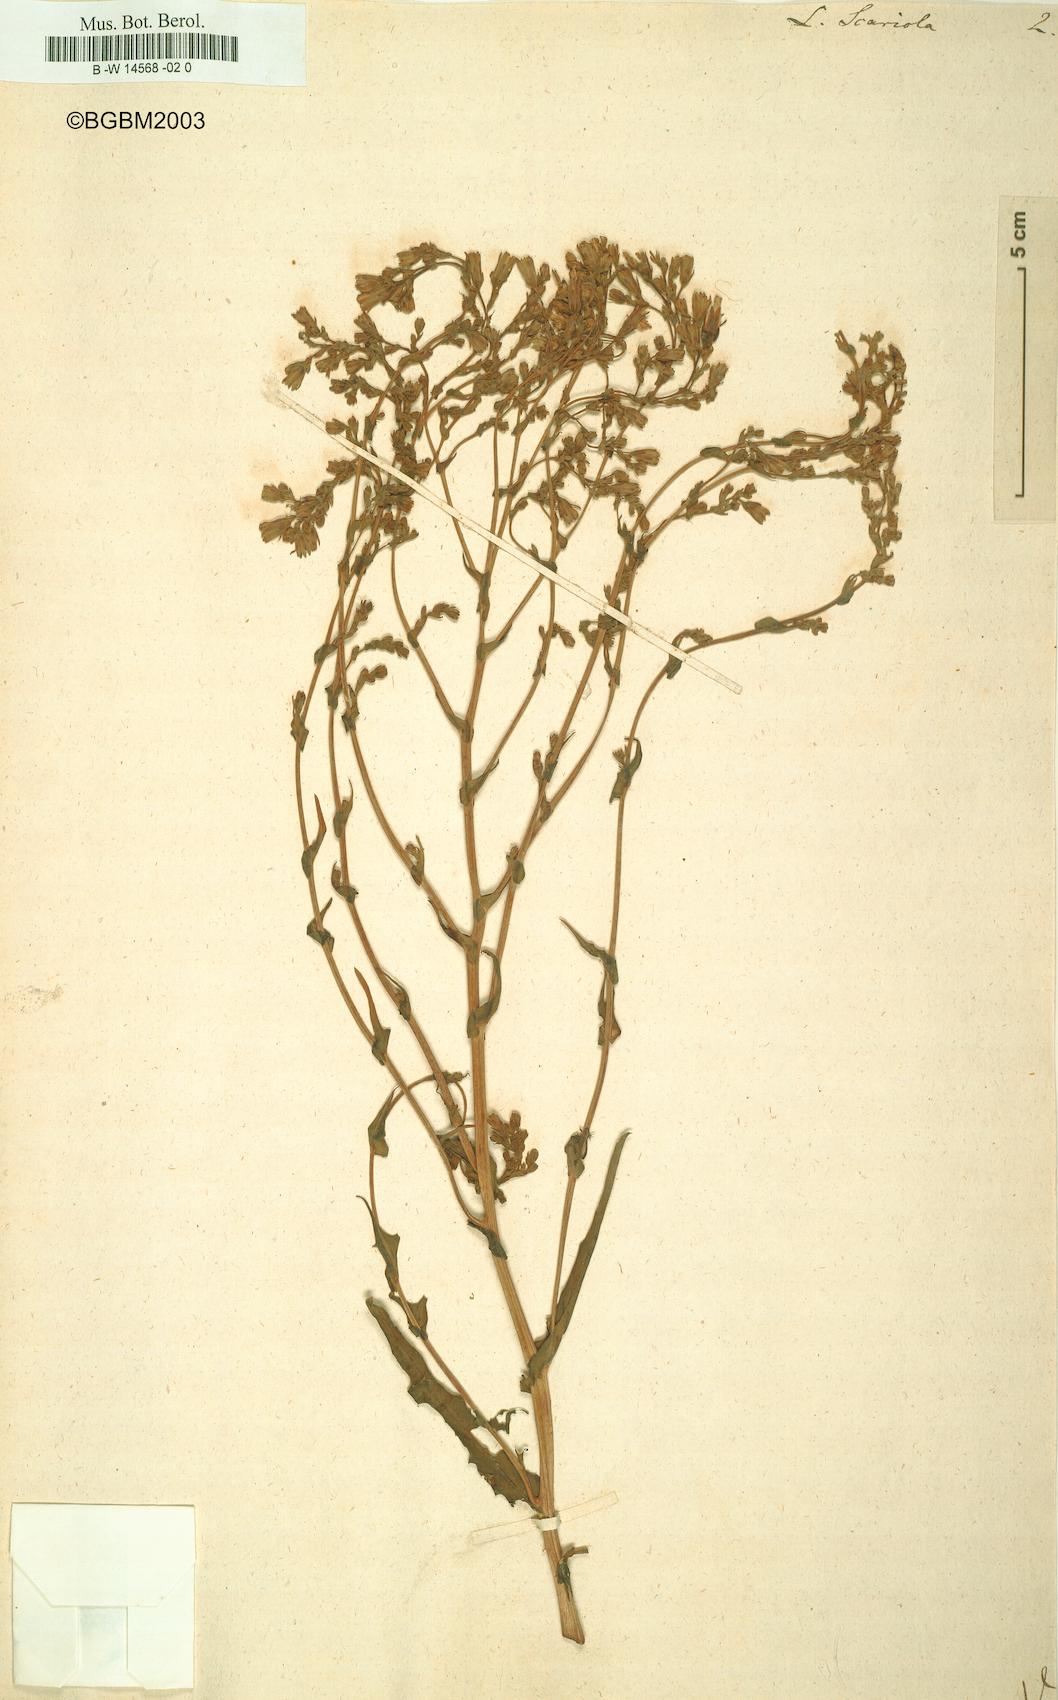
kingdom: Plantae
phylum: Tracheophyta
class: Magnoliopsida
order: Asterales
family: Asteraceae
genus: Lactuca
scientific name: Lactuca serriola
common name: Prickly lettuce
